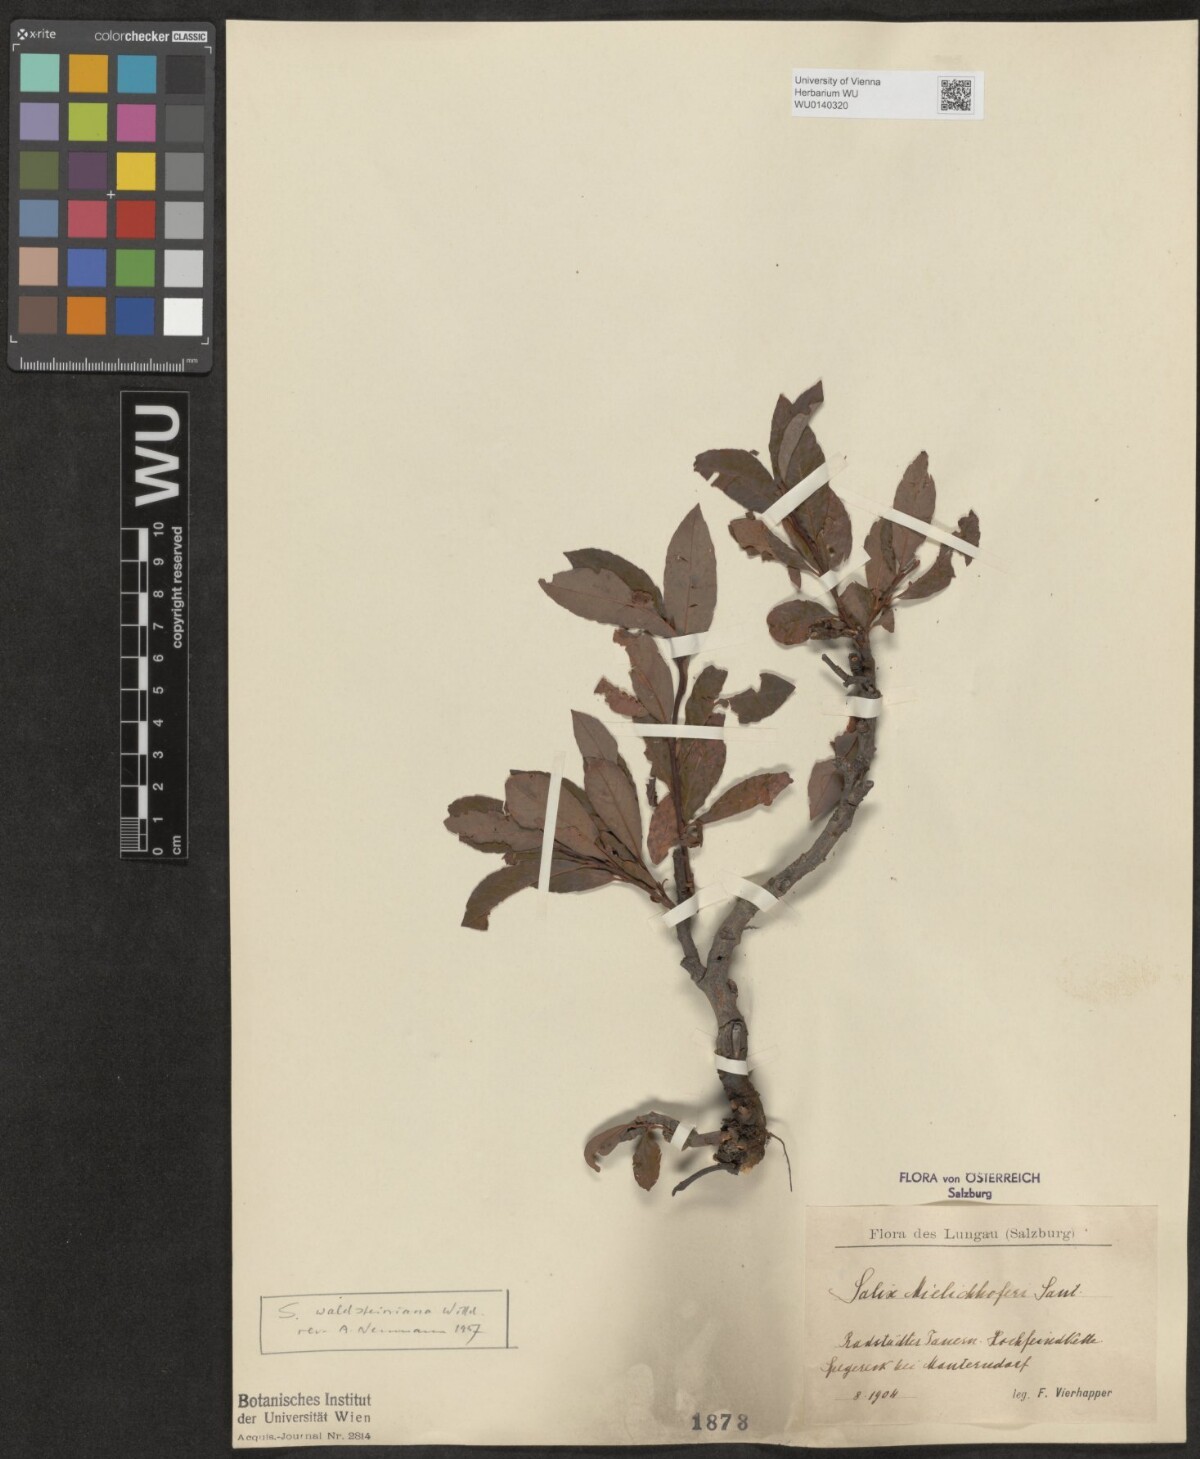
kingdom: Plantae
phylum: Tracheophyta
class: Magnoliopsida
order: Malpighiales
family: Salicaceae
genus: Salix
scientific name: Salix waldsteiniana
